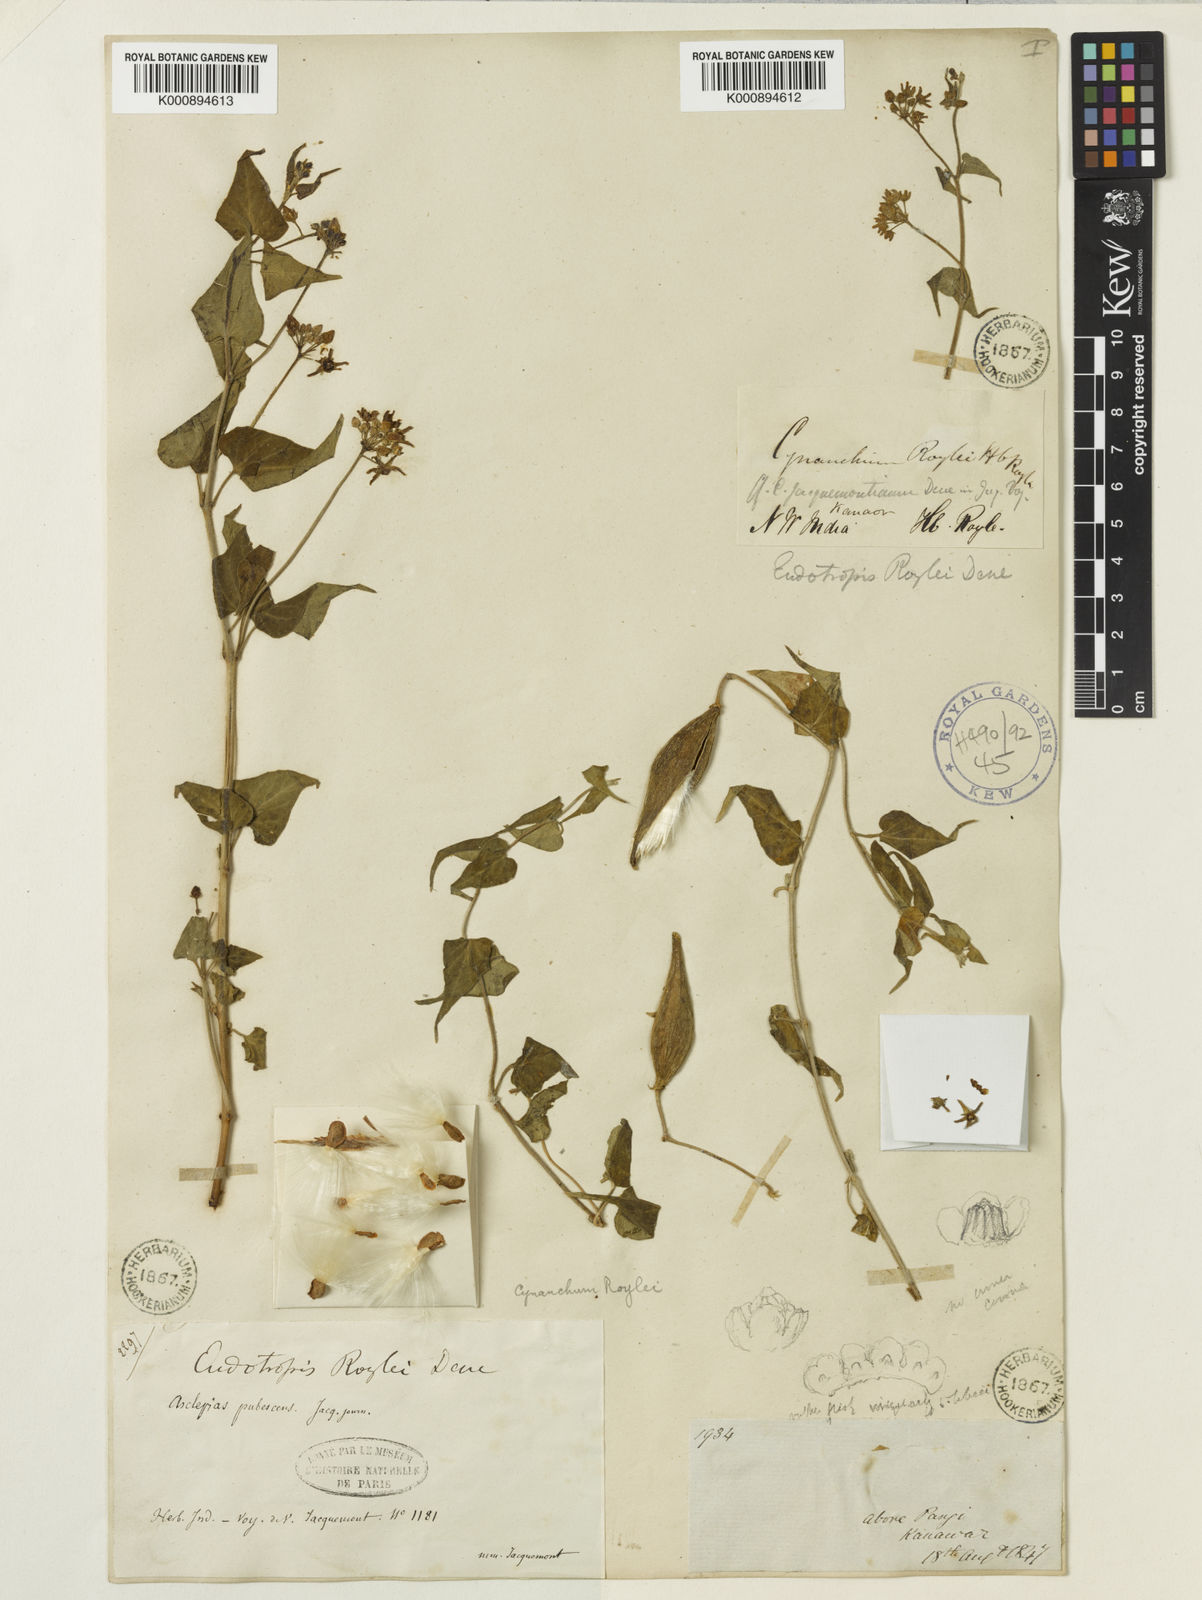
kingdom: Plantae
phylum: Tracheophyta
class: Magnoliopsida
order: Gentianales
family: Apocynaceae
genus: Cynanchum
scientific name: Cynanchum roylei
